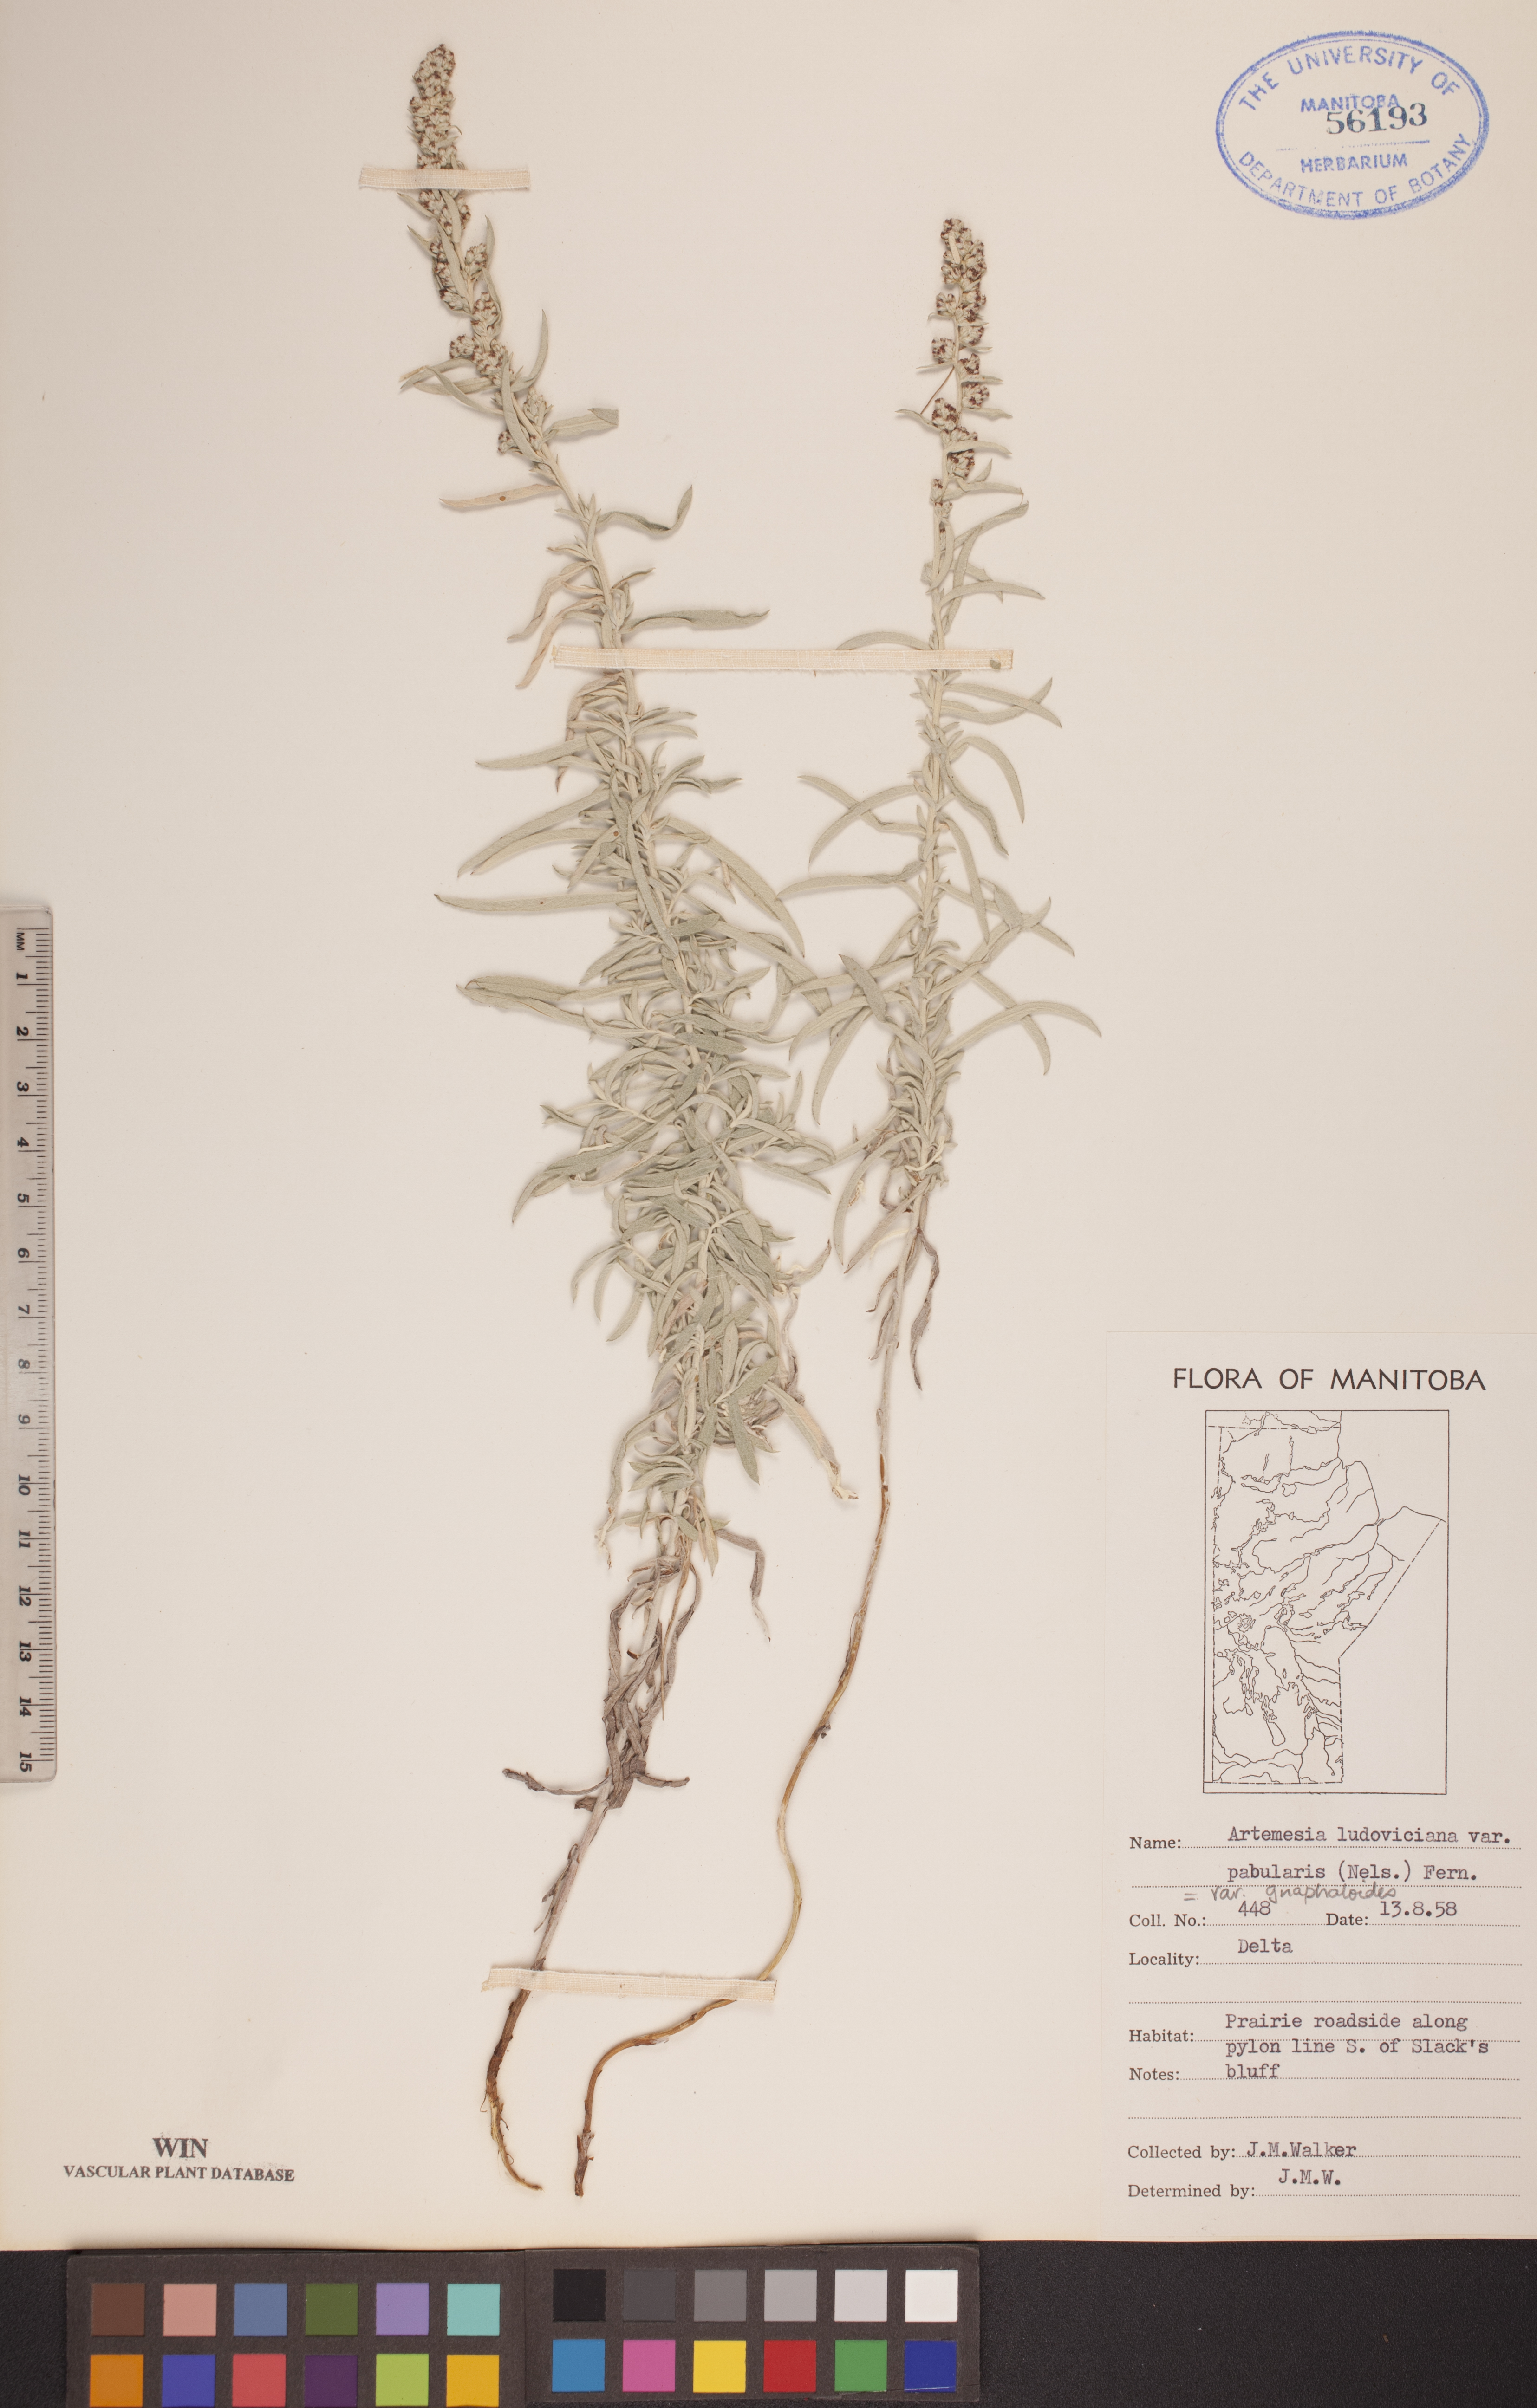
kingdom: Plantae
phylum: Tracheophyta
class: Magnoliopsida
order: Asterales
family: Asteraceae
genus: Artemisia
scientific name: Artemisia ludoviciana
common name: Western mugwort
